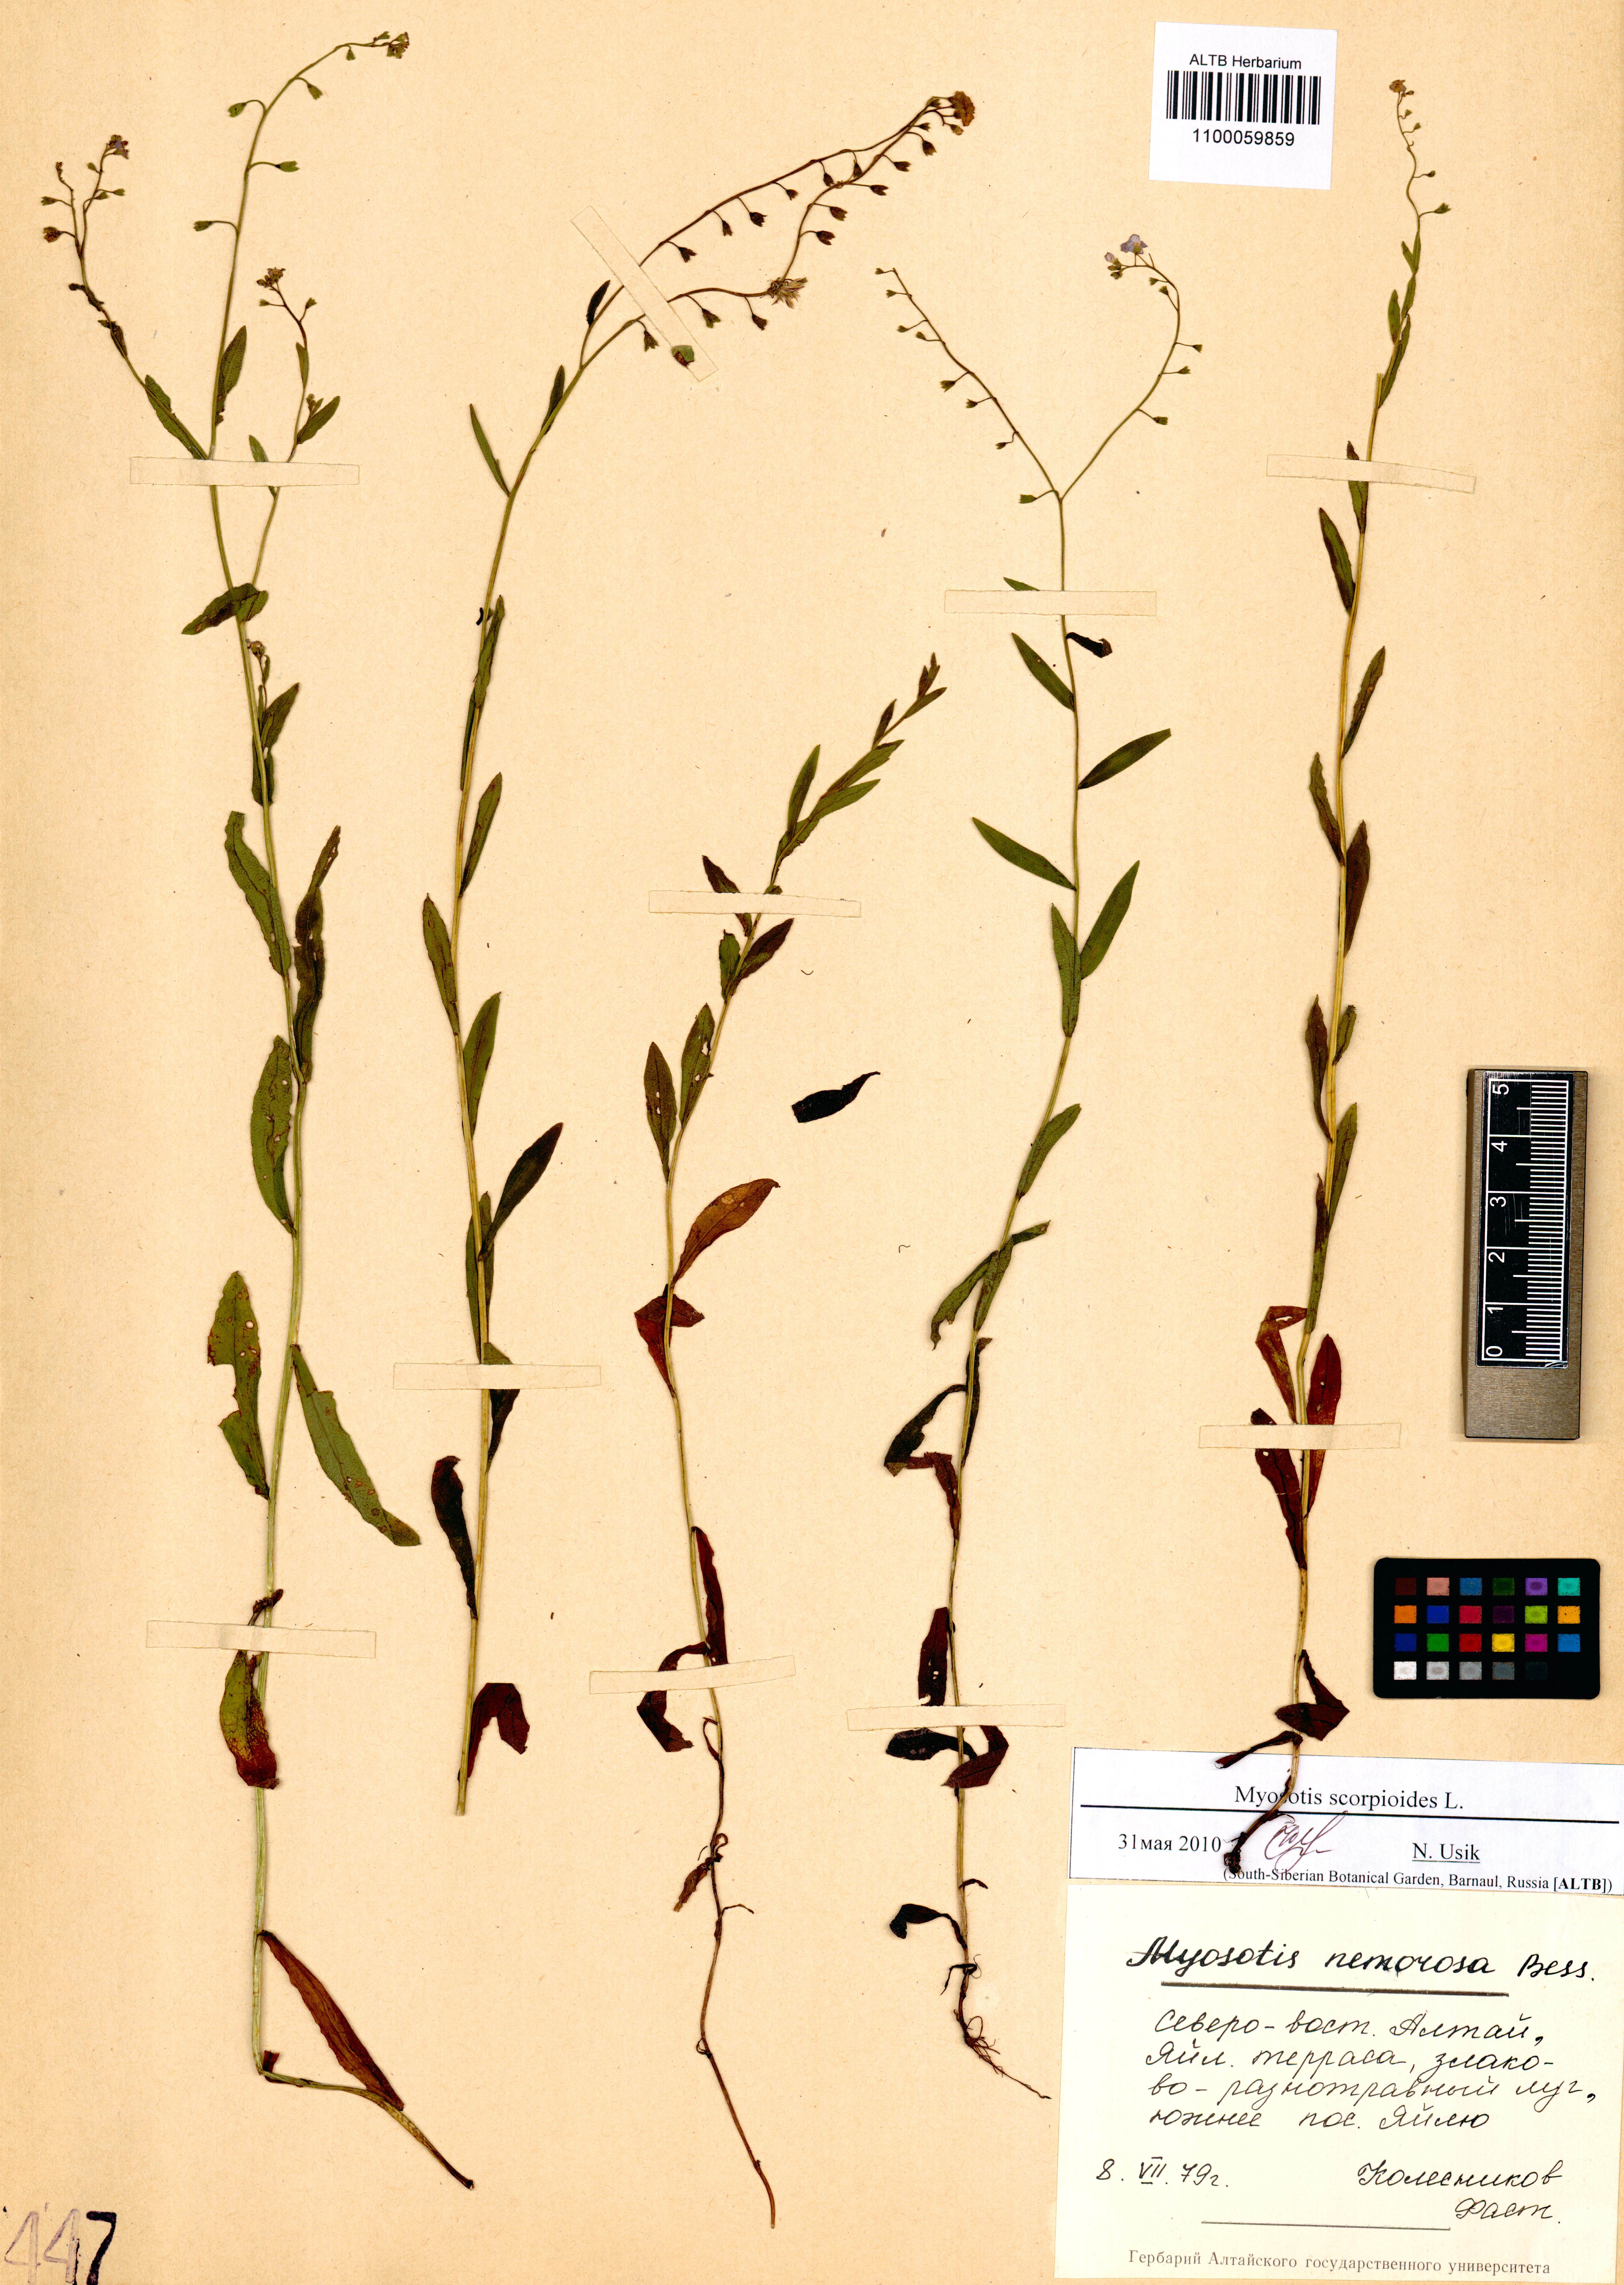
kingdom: Plantae
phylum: Tracheophyta
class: Magnoliopsida
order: Boraginales
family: Boraginaceae
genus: Myosotis
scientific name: Myosotis scorpioides
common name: Water forget-me-not
